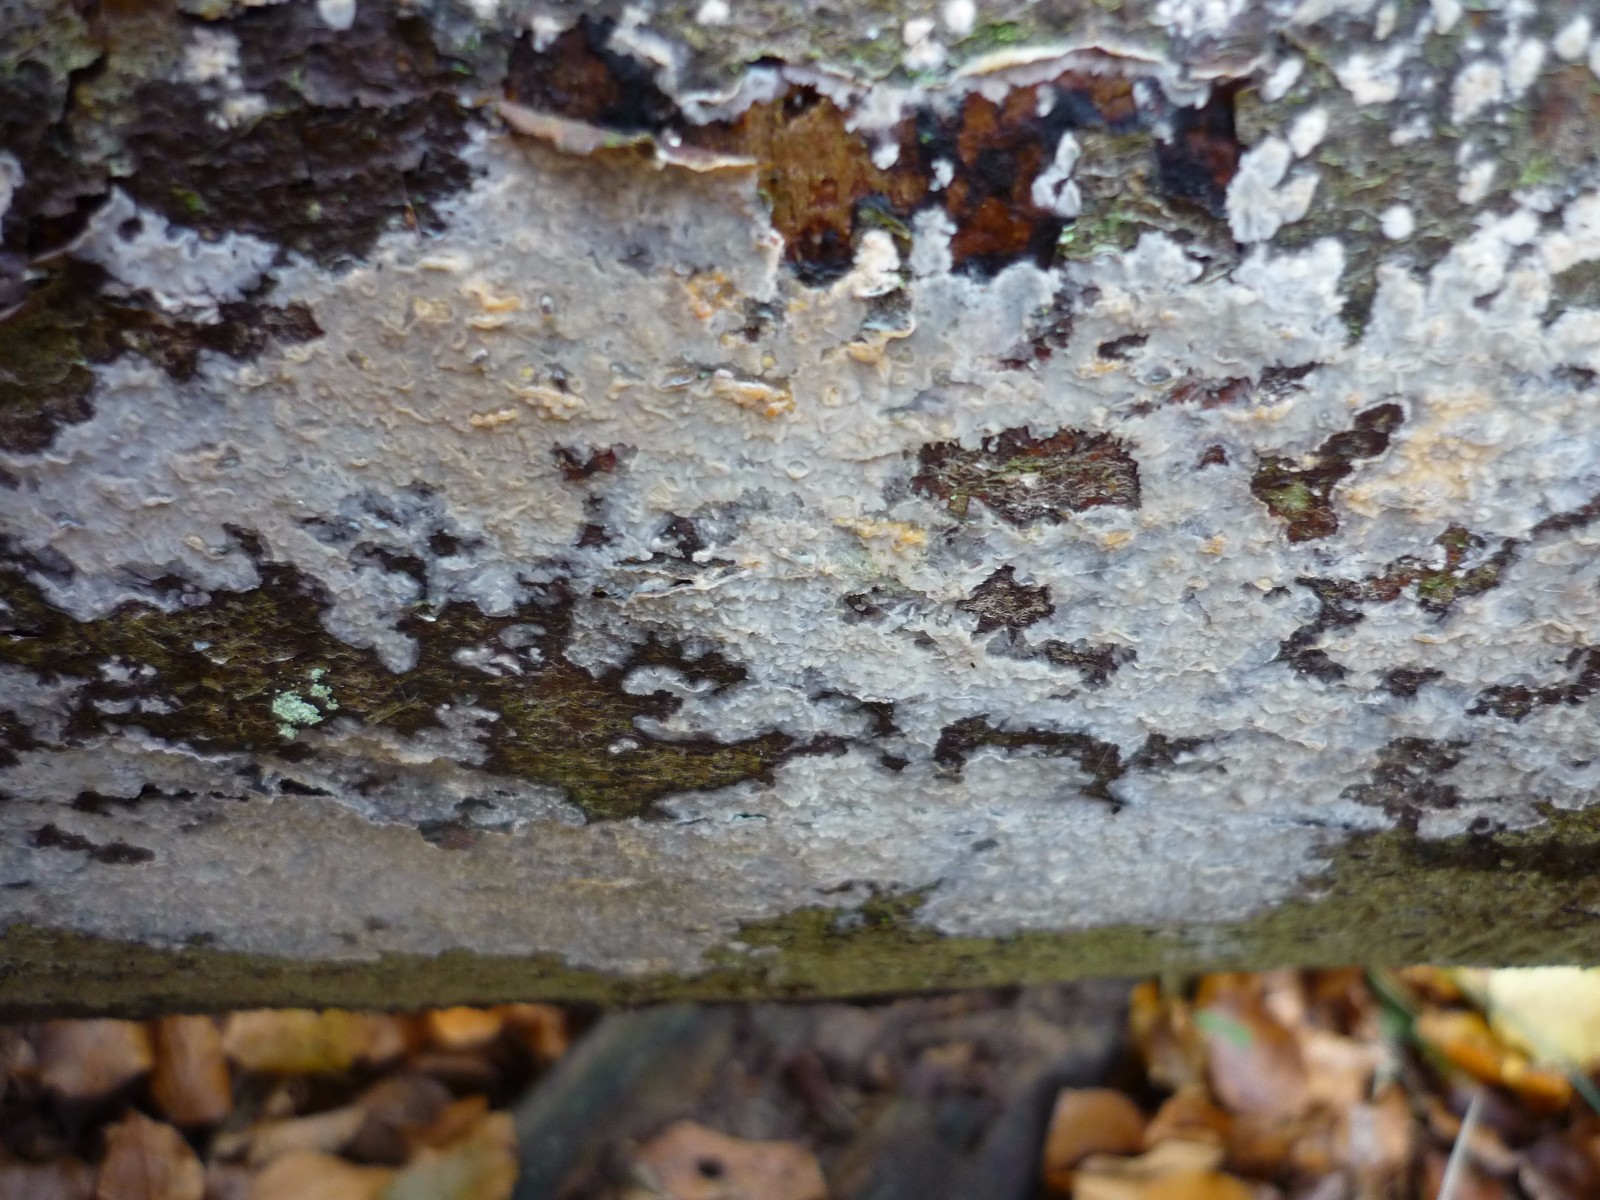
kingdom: Fungi
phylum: Basidiomycota
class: Agaricomycetes
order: Agaricales
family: Radulomycetaceae
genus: Radulomyces
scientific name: Radulomyces confluens
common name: glat naftalinskind
